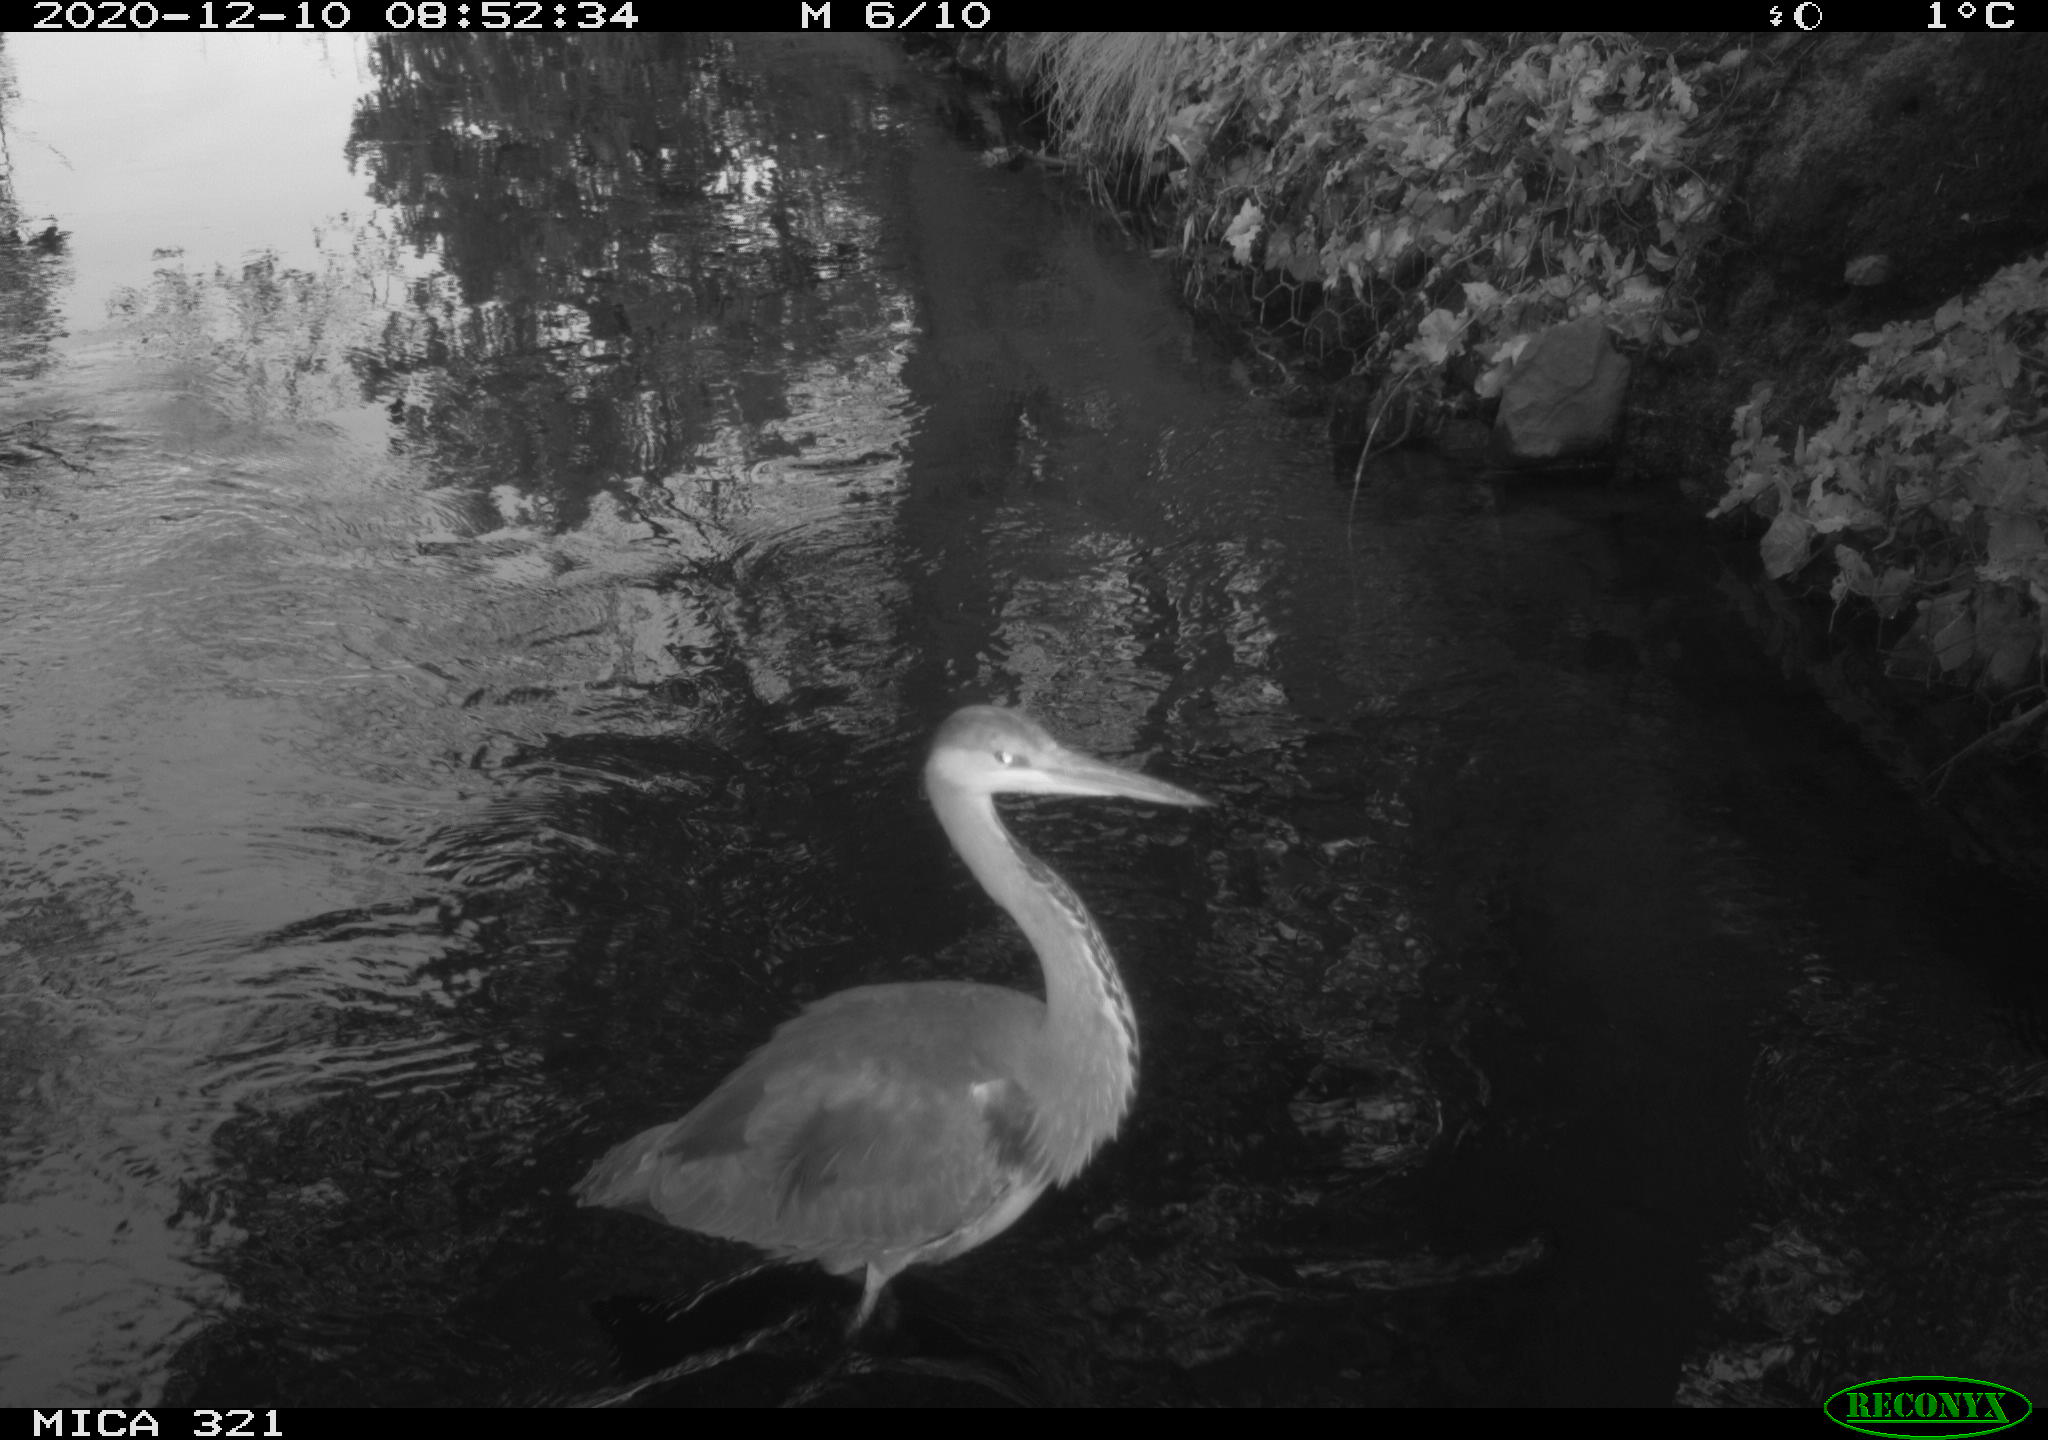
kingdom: Animalia
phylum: Chordata
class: Aves
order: Pelecaniformes
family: Ardeidae
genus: Ardea
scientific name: Ardea cinerea
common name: Grey heron
